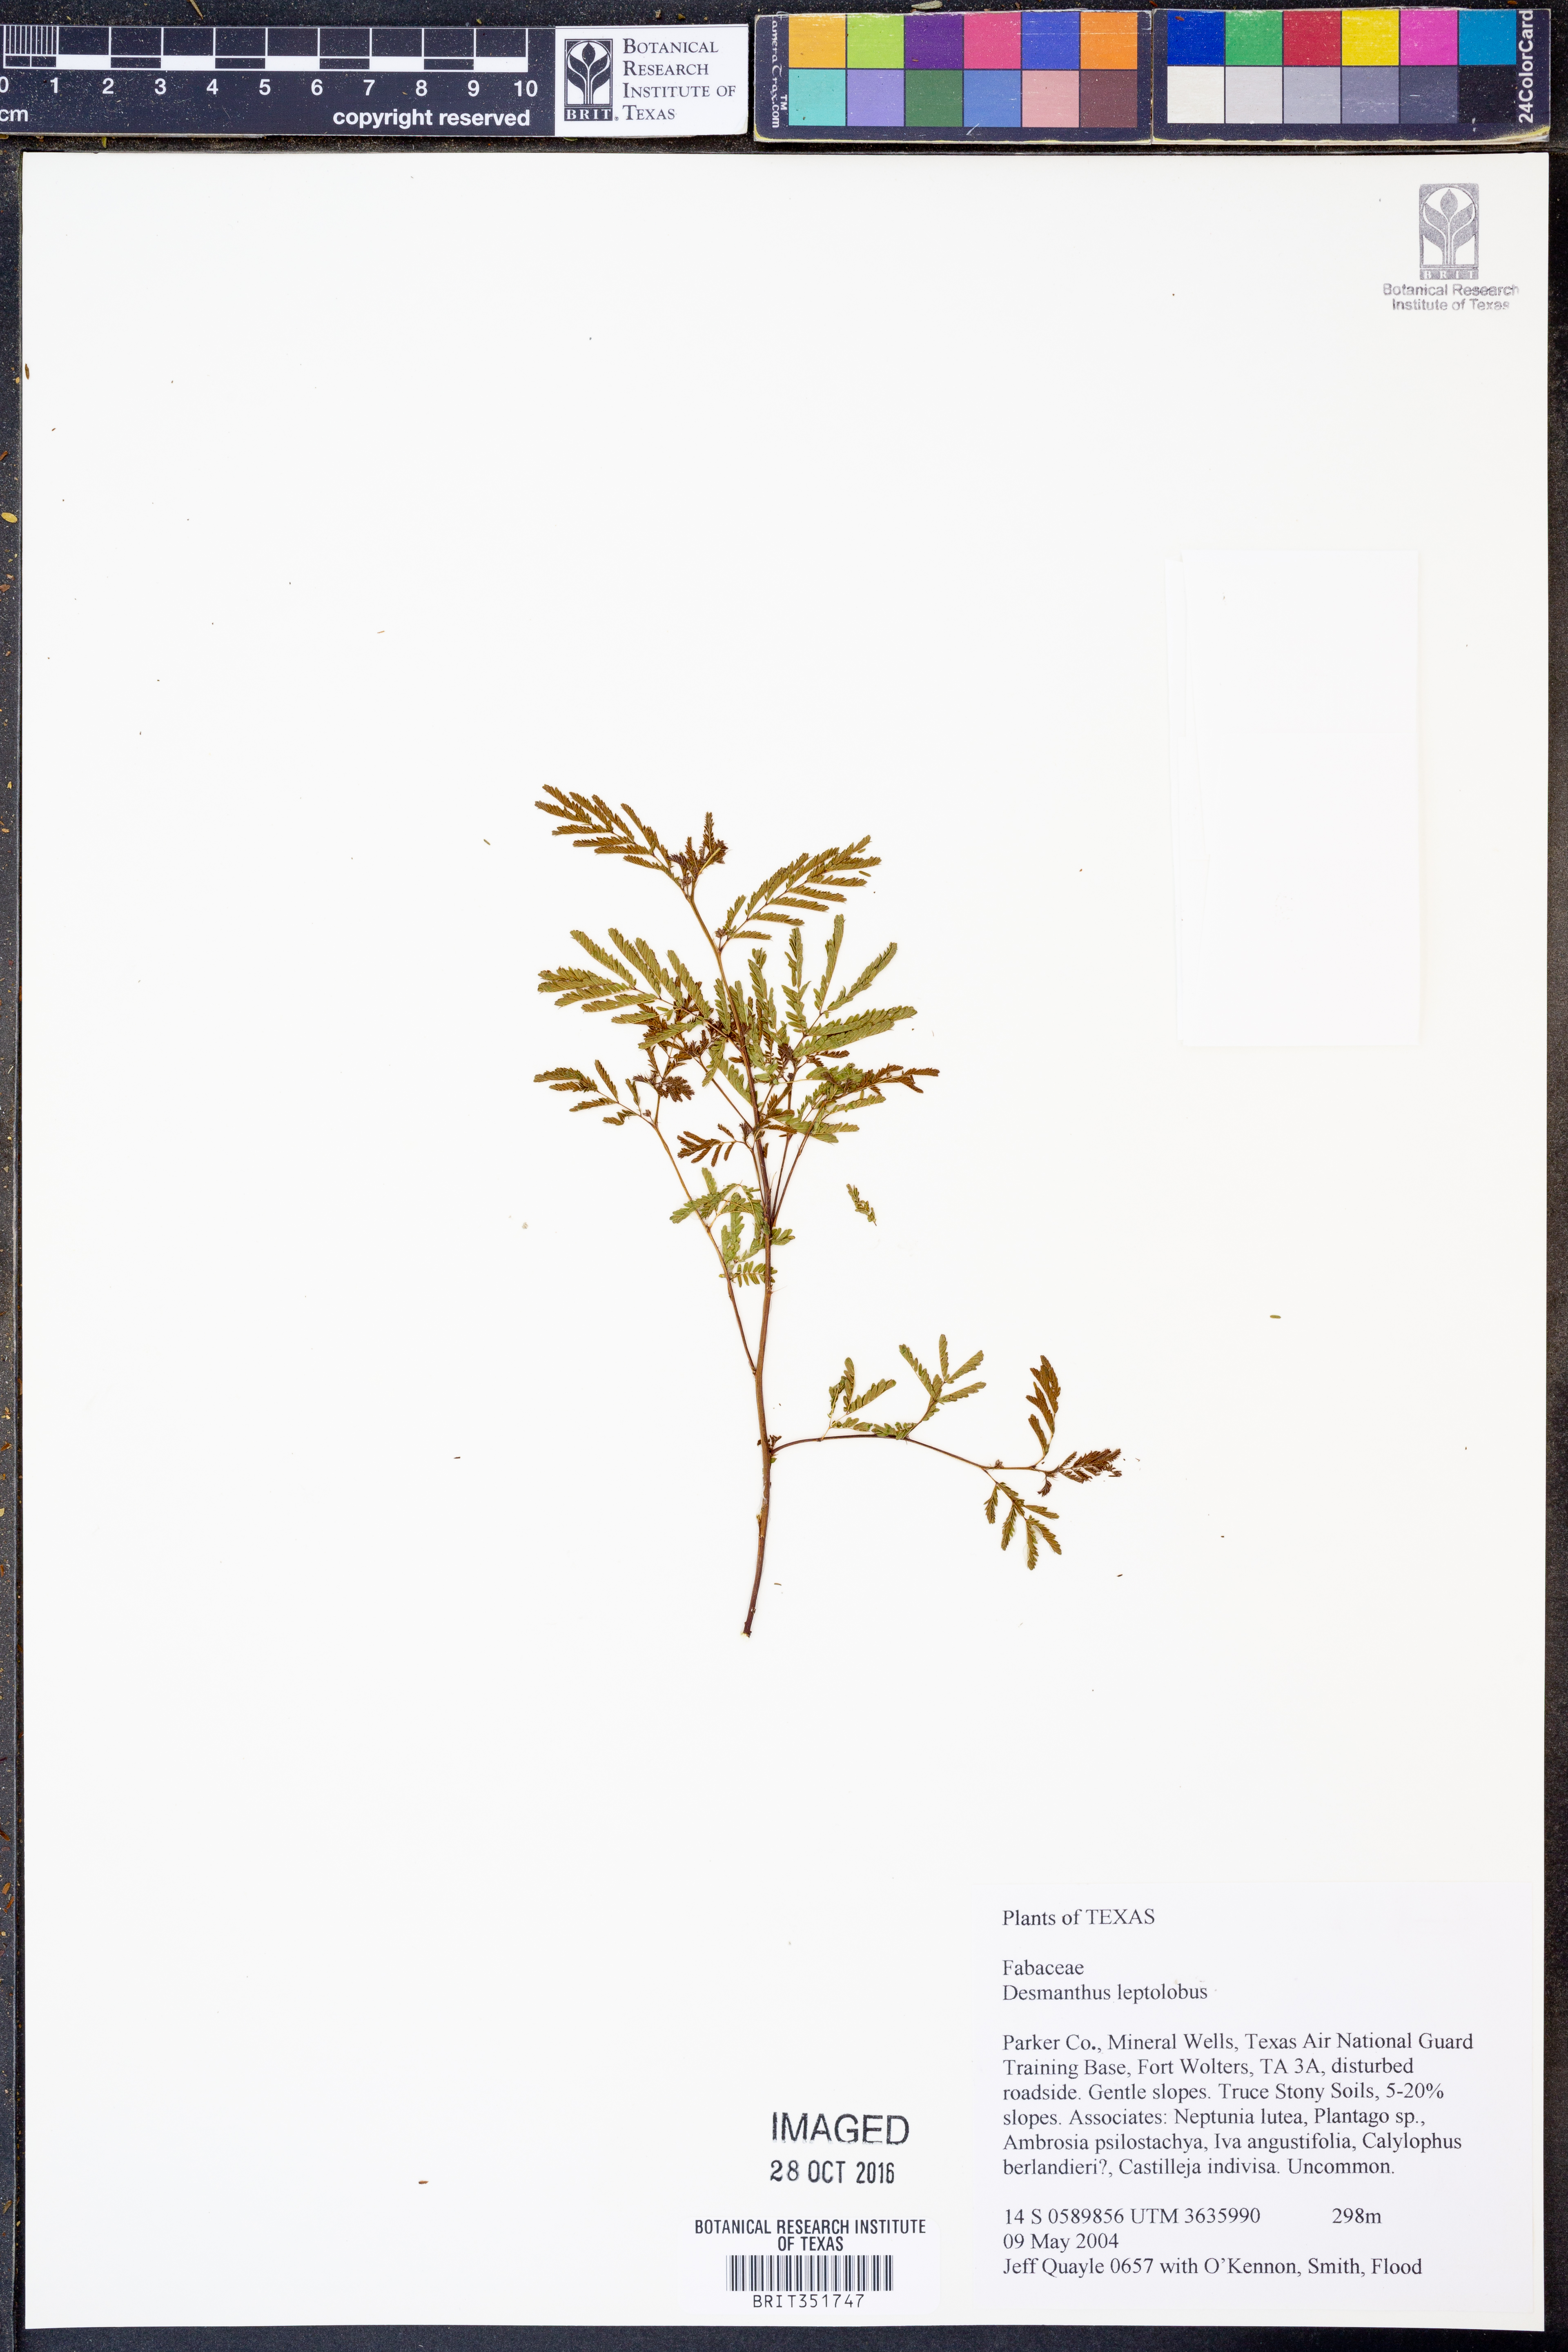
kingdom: Plantae
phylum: Tracheophyta
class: Magnoliopsida
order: Fabales
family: Fabaceae
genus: Desmanthus
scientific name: Desmanthus leptolobus
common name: Prairie-mimosa
